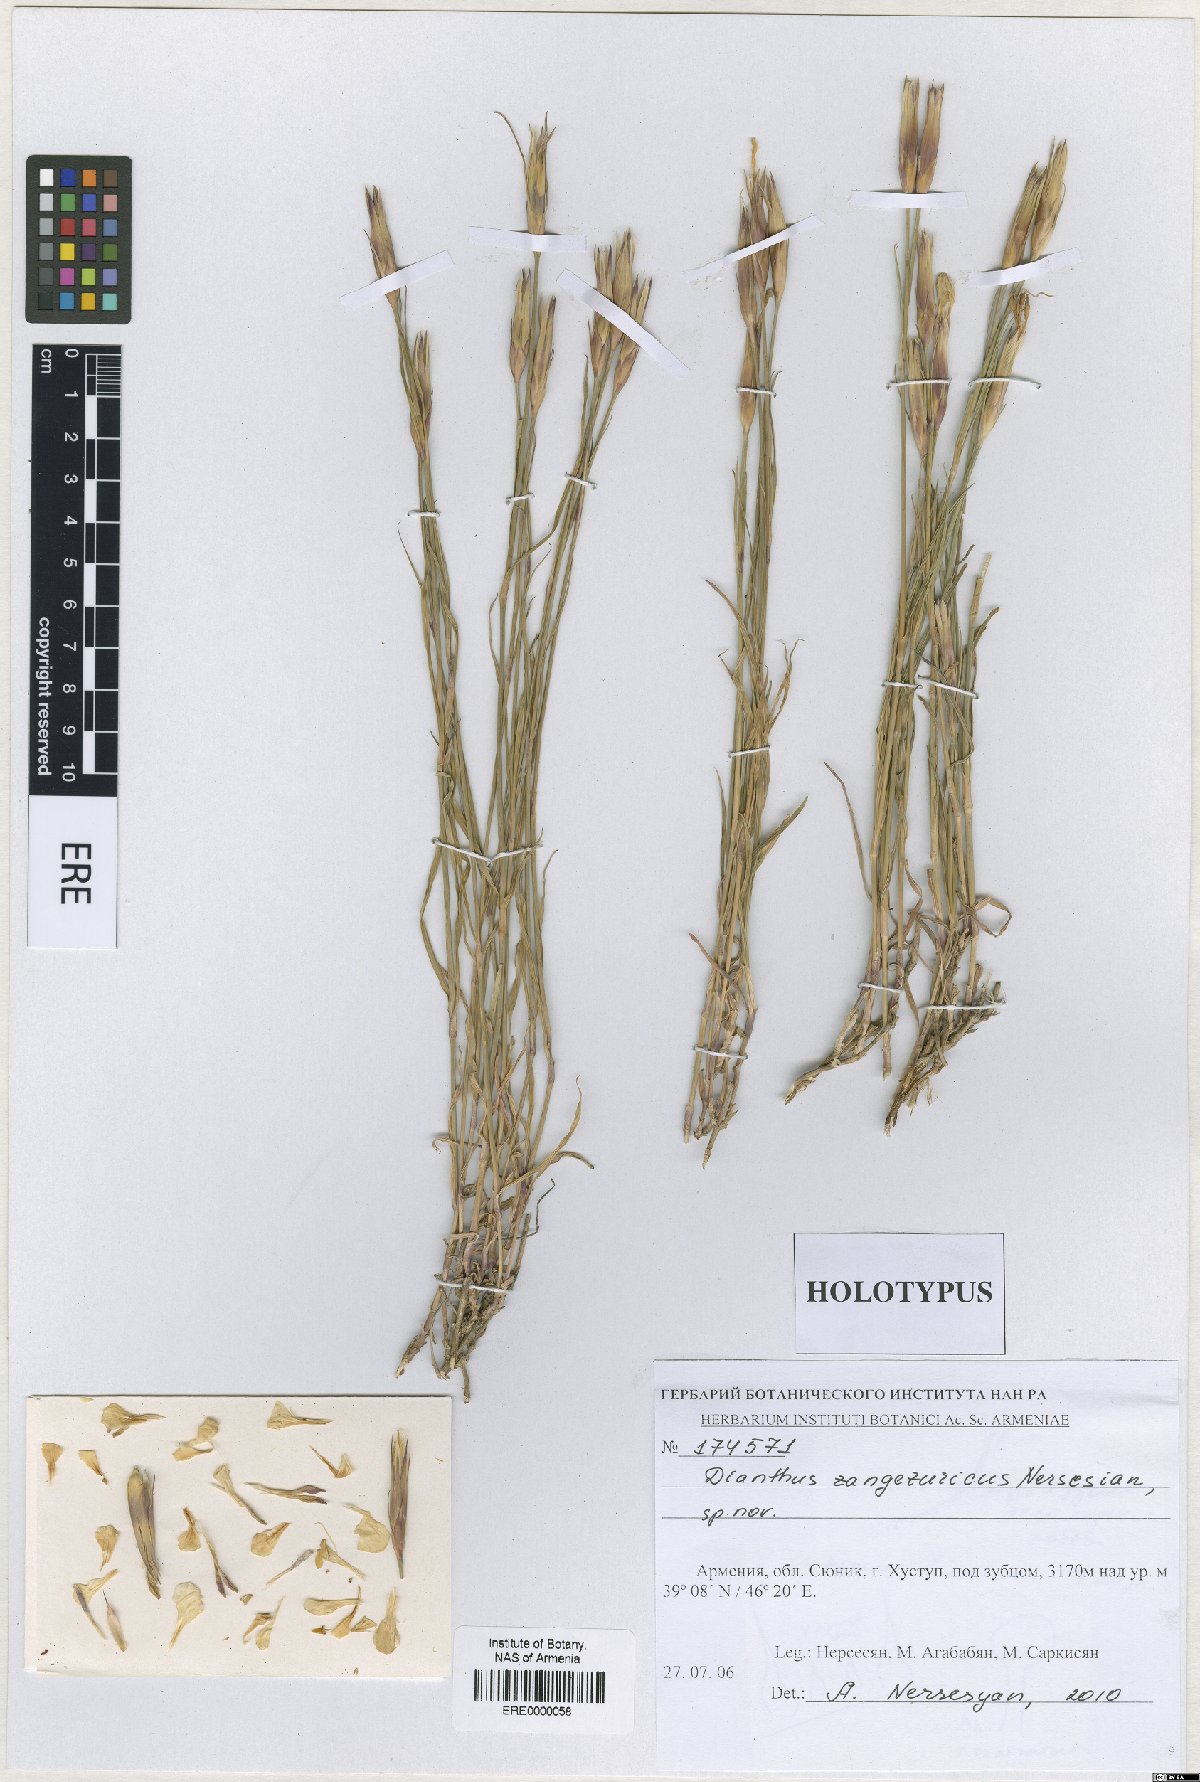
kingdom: Plantae
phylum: Tracheophyta
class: Magnoliopsida
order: Caryophyllales
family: Caryophyllaceae
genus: Dianthus
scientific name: Dianthus zangezuricus
